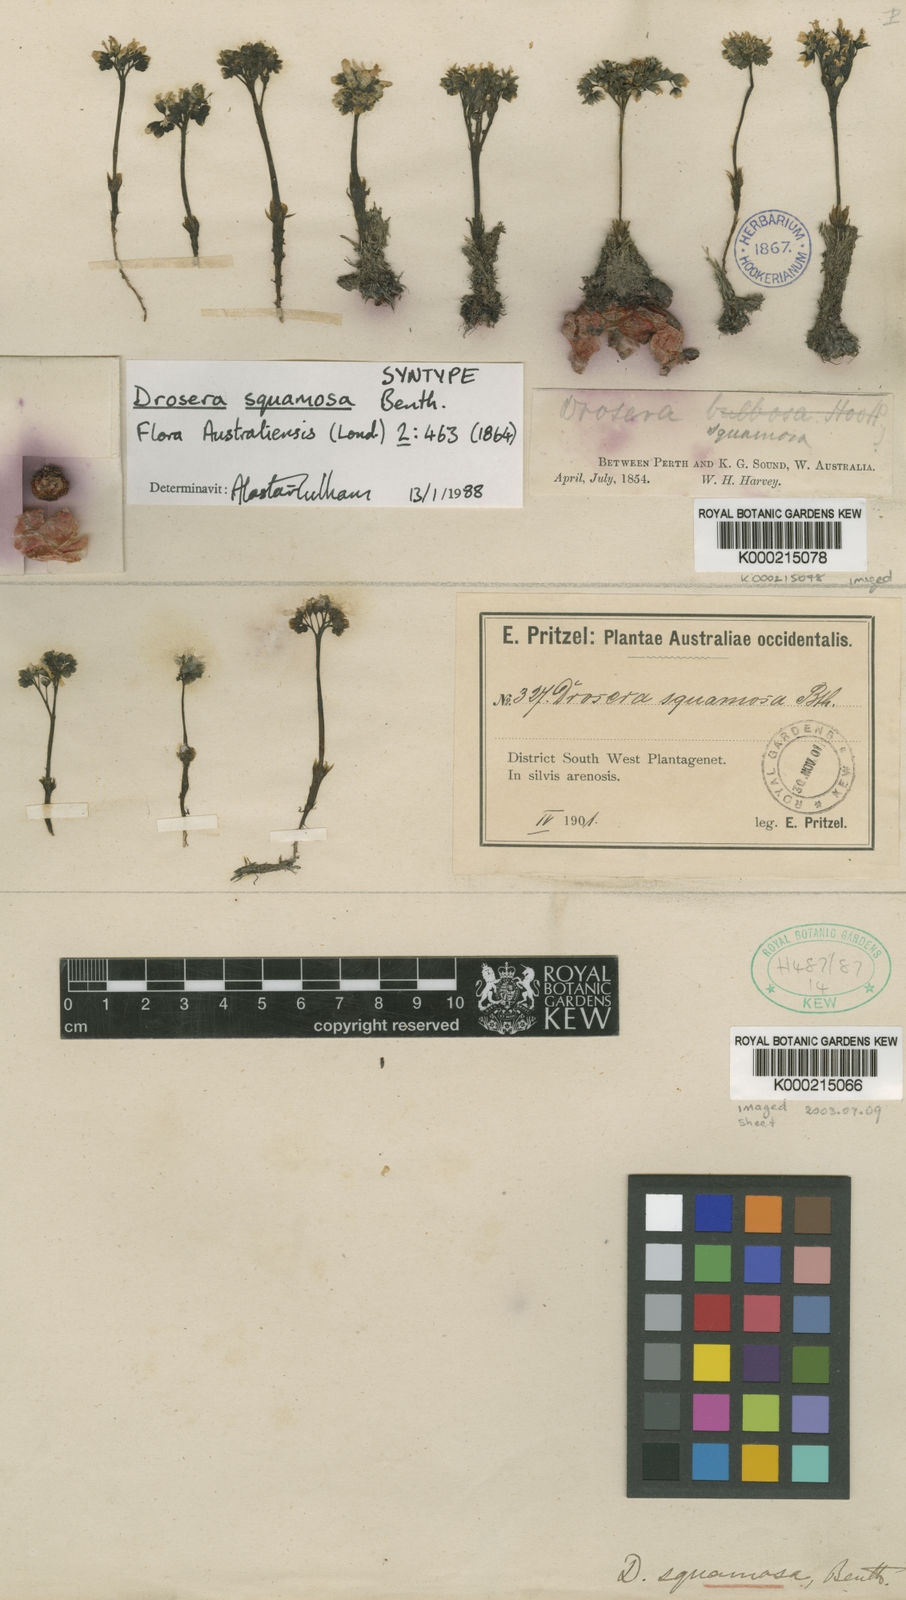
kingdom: Plantae
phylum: Tracheophyta
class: Magnoliopsida
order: Caryophyllales
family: Droseraceae
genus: Drosera
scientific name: Drosera erythrorhiza
